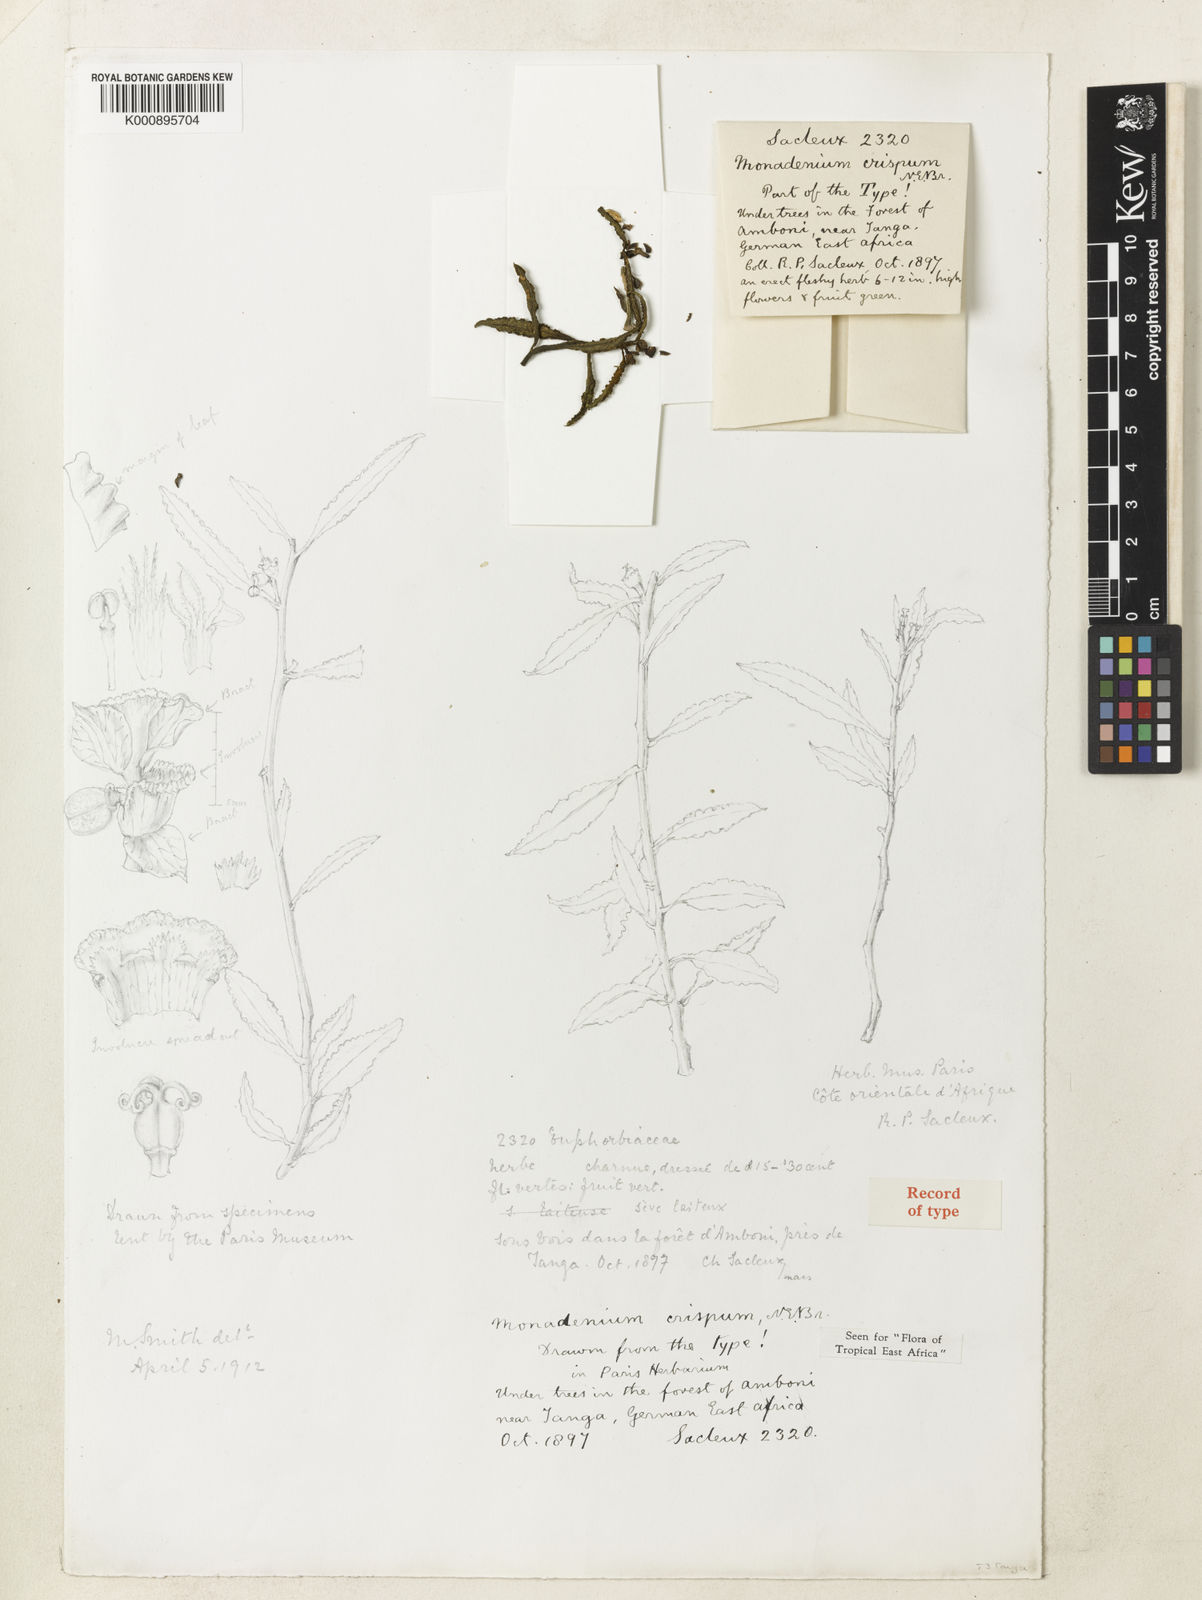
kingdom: Plantae
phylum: Tracheophyta
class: Magnoliopsida
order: Malpighiales
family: Euphorbiaceae
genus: Euphorbia
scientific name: Euphorbia neocrispa
